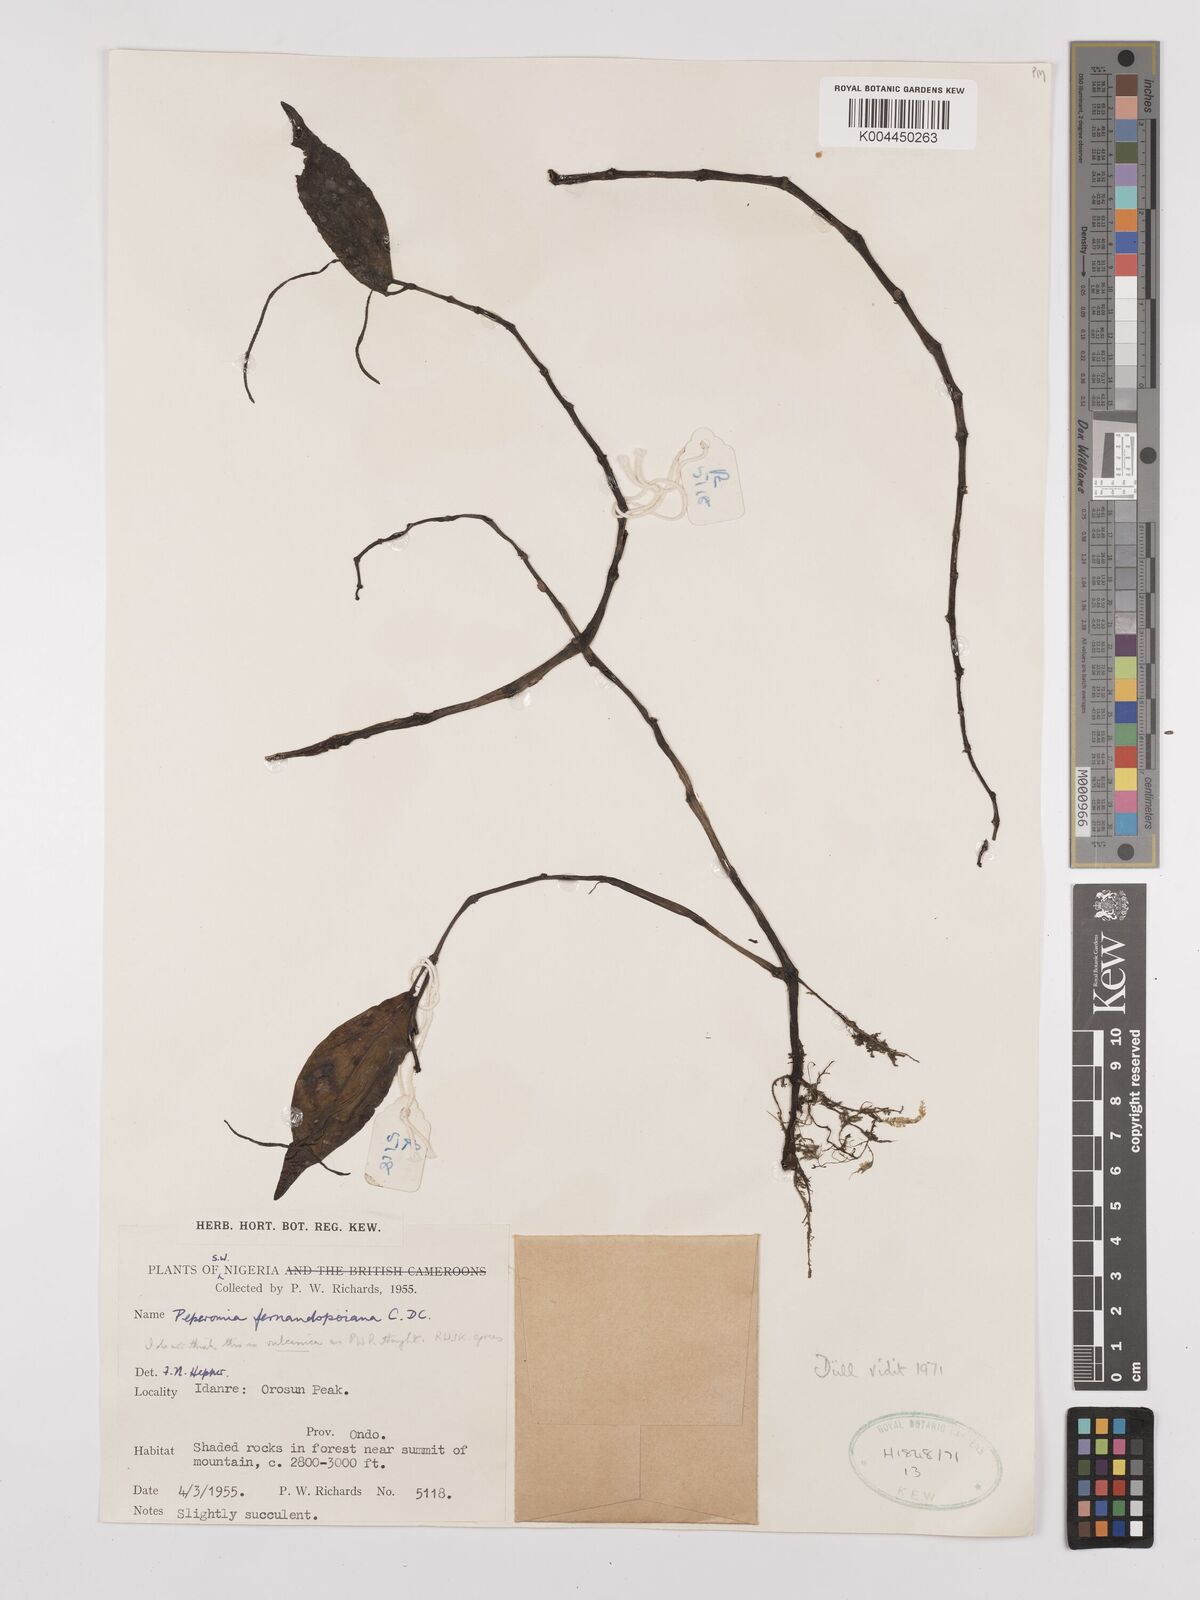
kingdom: Plantae
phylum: Tracheophyta
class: Magnoliopsida
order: Piperales
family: Piperaceae
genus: Peperomia
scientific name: Peperomia fernandeziana
